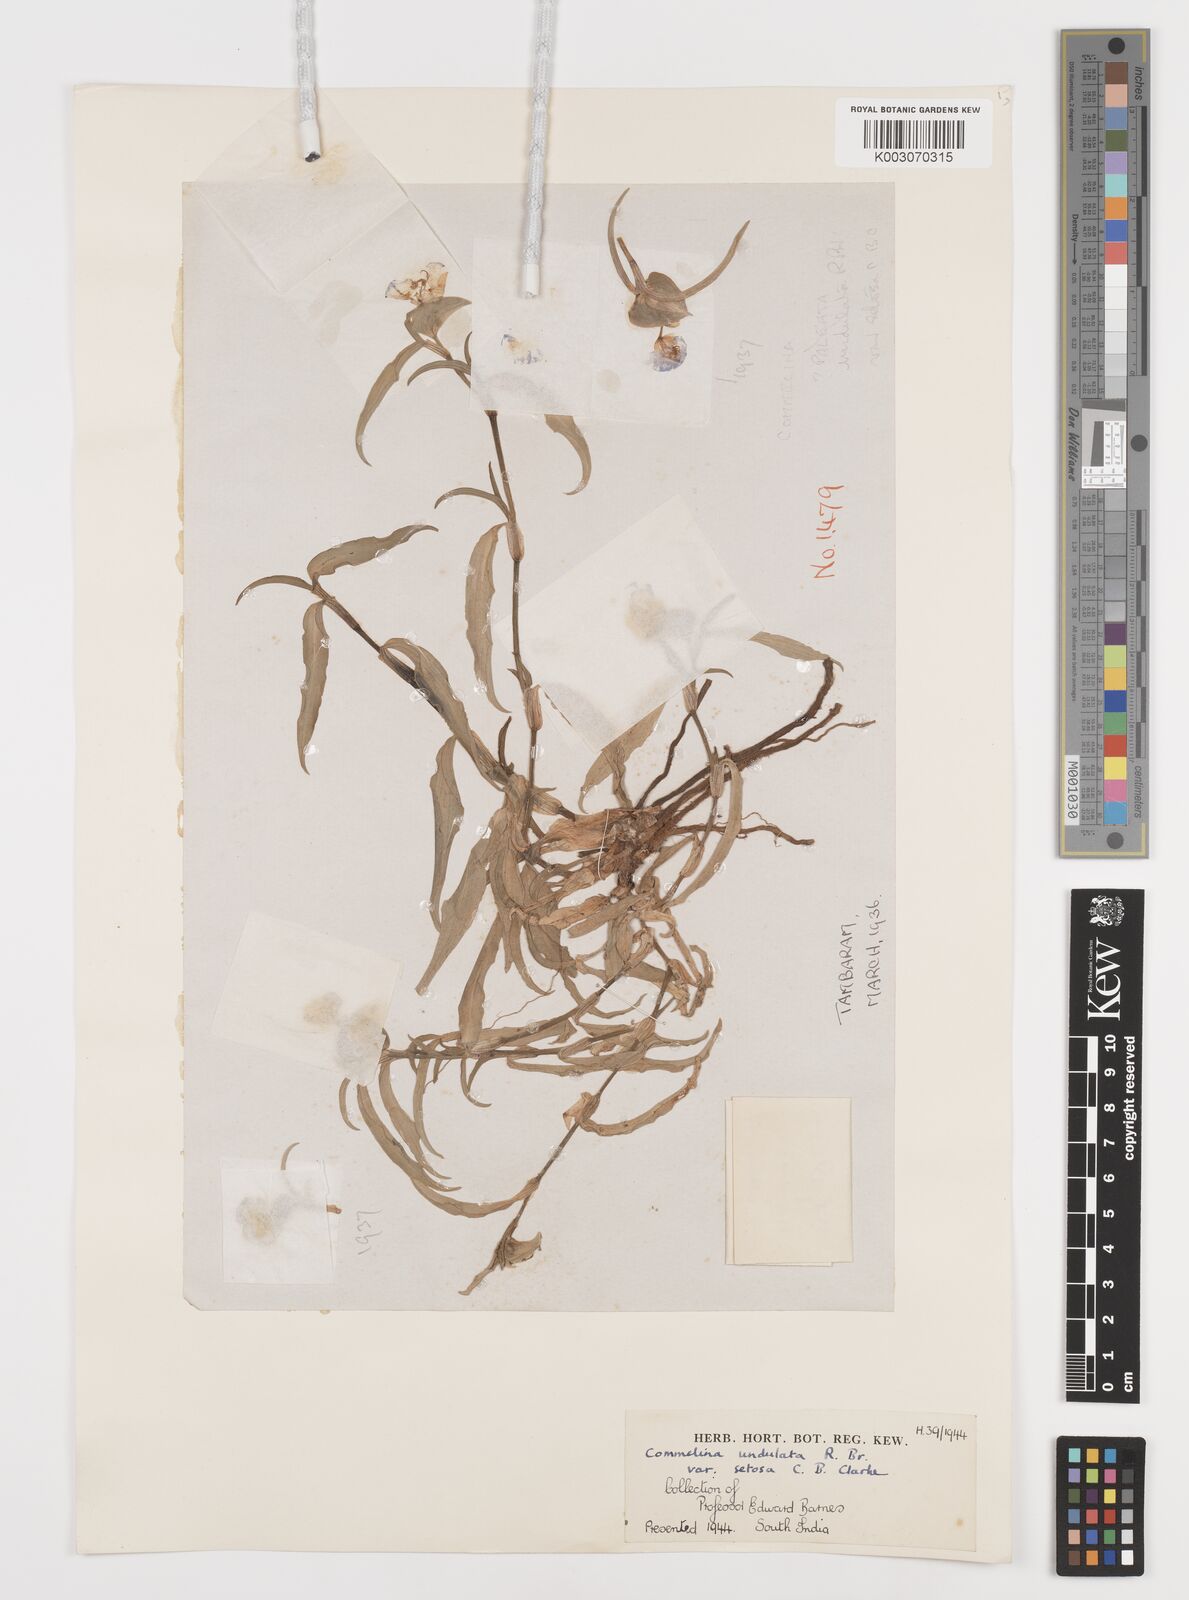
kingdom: Plantae
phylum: Tracheophyta
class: Liliopsida
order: Commelinales
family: Commelinaceae
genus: Commelina
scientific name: Commelina chamissonis
